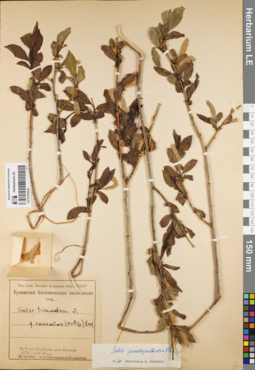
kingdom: Plantae
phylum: Tracheophyta
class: Magnoliopsida
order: Malpighiales
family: Salicaceae
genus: Salix
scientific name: Salix pseudopentandra
